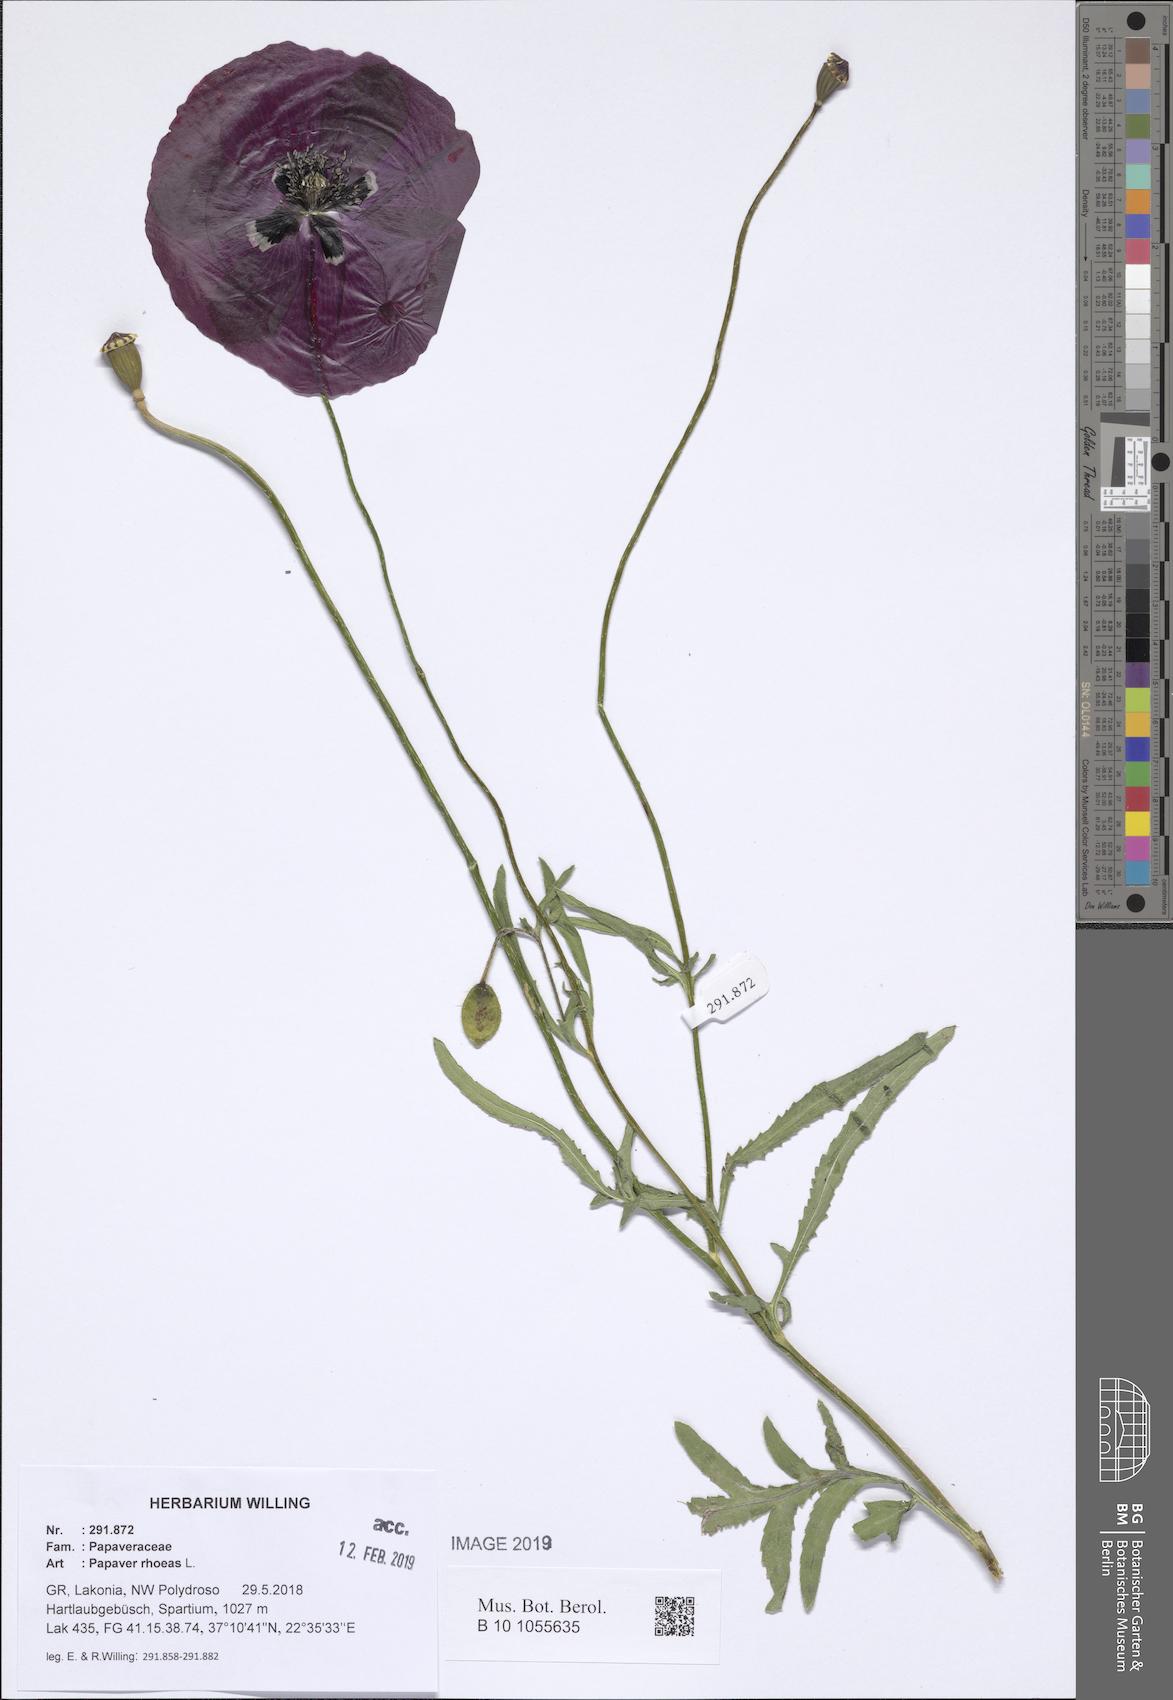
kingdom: Plantae
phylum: Tracheophyta
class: Magnoliopsida
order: Ranunculales
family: Papaveraceae
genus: Papaver
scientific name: Papaver rhoeas
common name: Corn poppy
